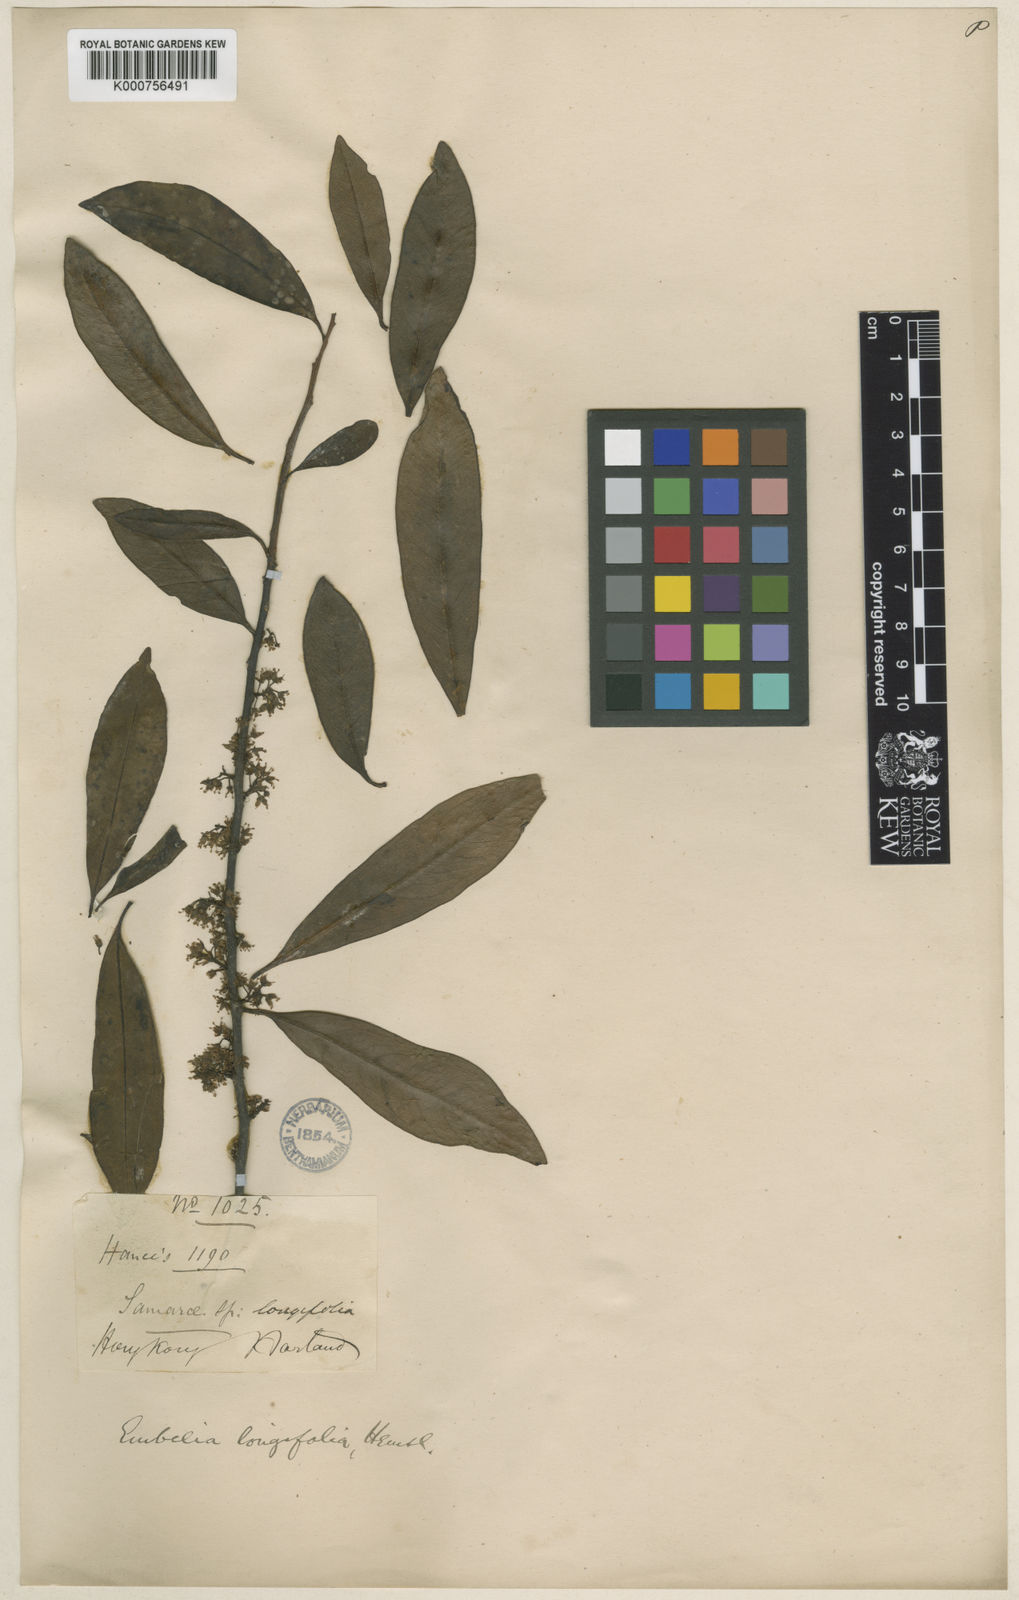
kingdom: Plantae
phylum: Tracheophyta
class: Magnoliopsida
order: Ericales
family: Primulaceae
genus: Embelia
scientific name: Embelia longifolia
